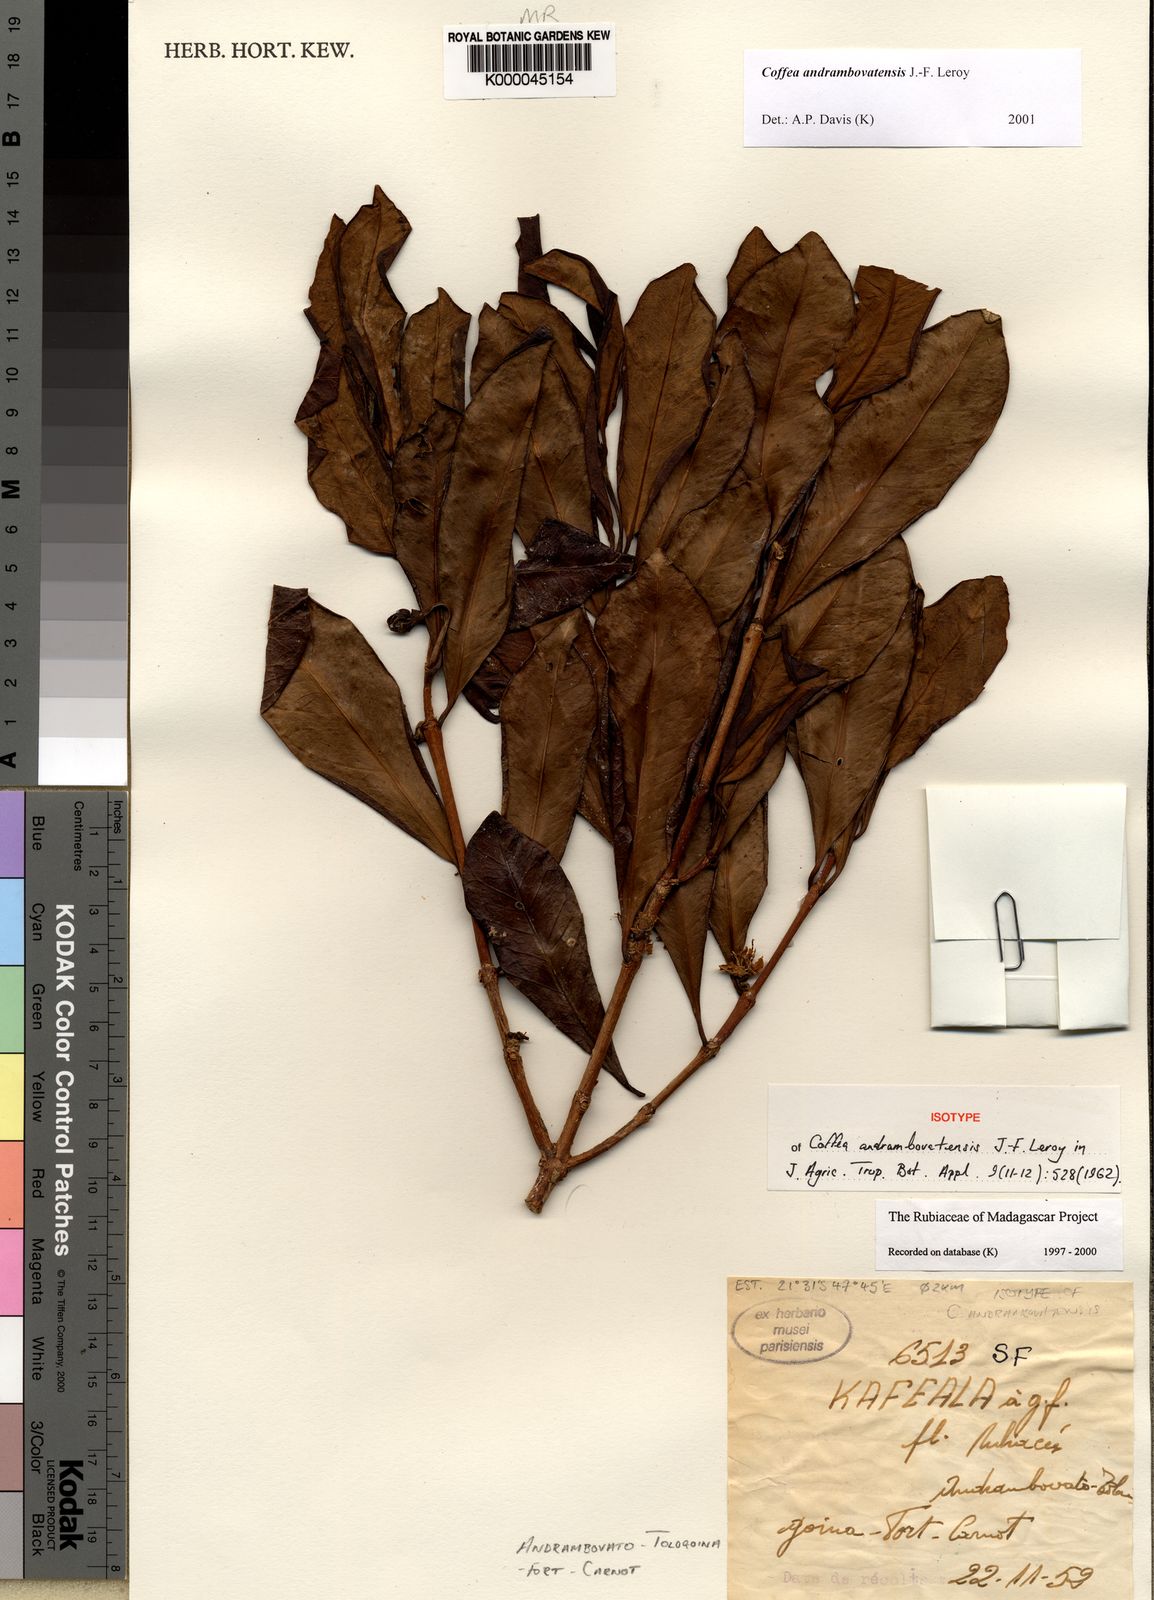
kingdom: Plantae
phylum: Tracheophyta
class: Magnoliopsida
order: Gentianales
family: Rubiaceae
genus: Coffea
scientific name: Coffea andrambovatensis
